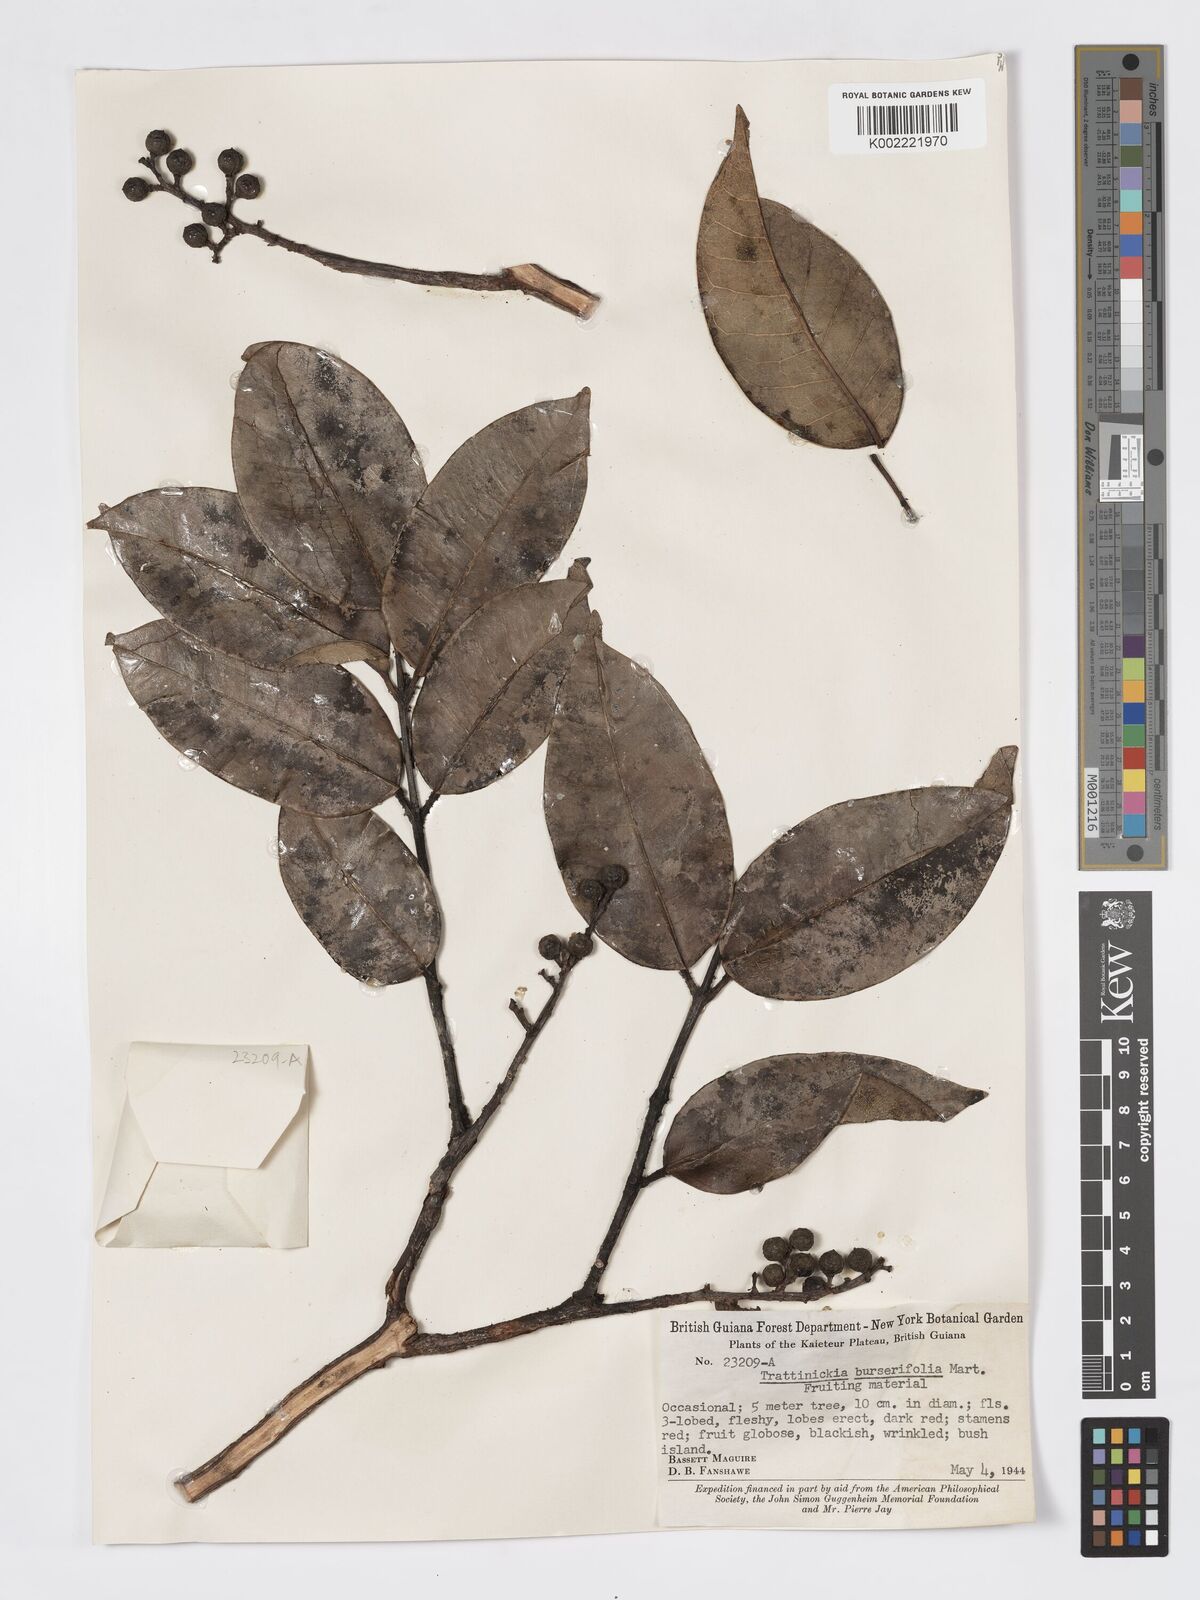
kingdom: Plantae
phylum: Tracheophyta
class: Magnoliopsida
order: Sapindales
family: Burseraceae
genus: Trattinnickia
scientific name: Trattinnickia burserifolia
